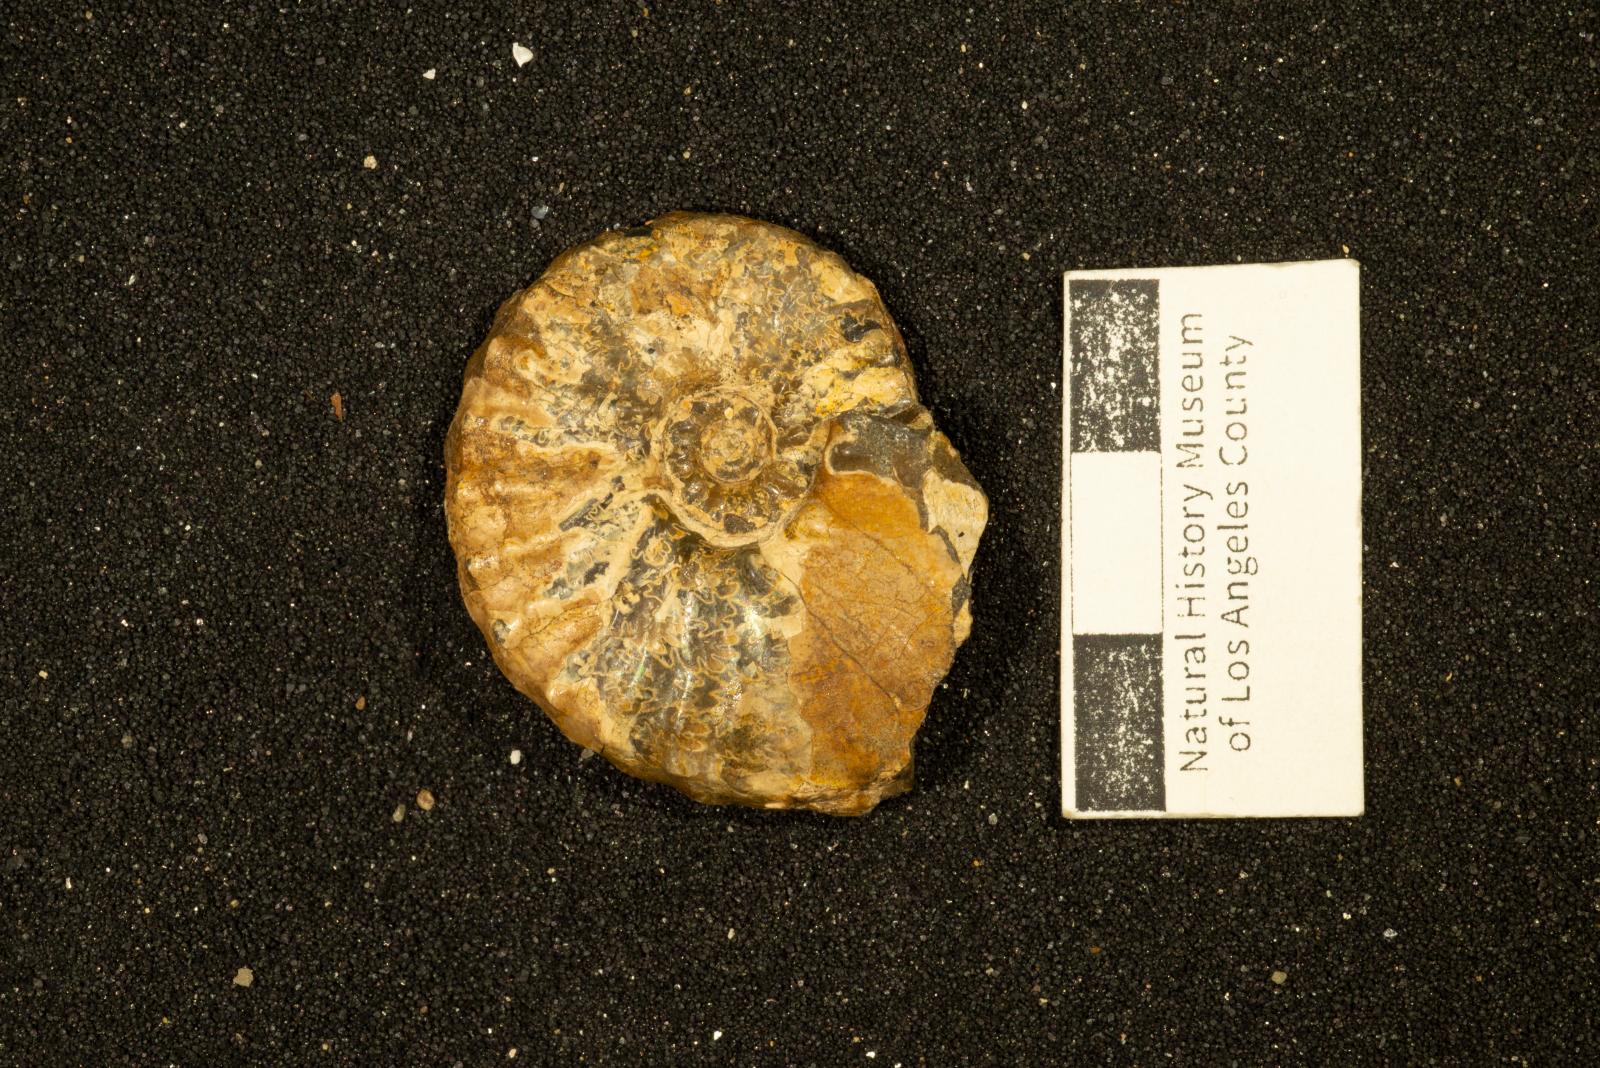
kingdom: Animalia
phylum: Mollusca
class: Cephalopoda
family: Collignoniceratidae
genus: Subprionocyclus
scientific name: Subprionocyclus
